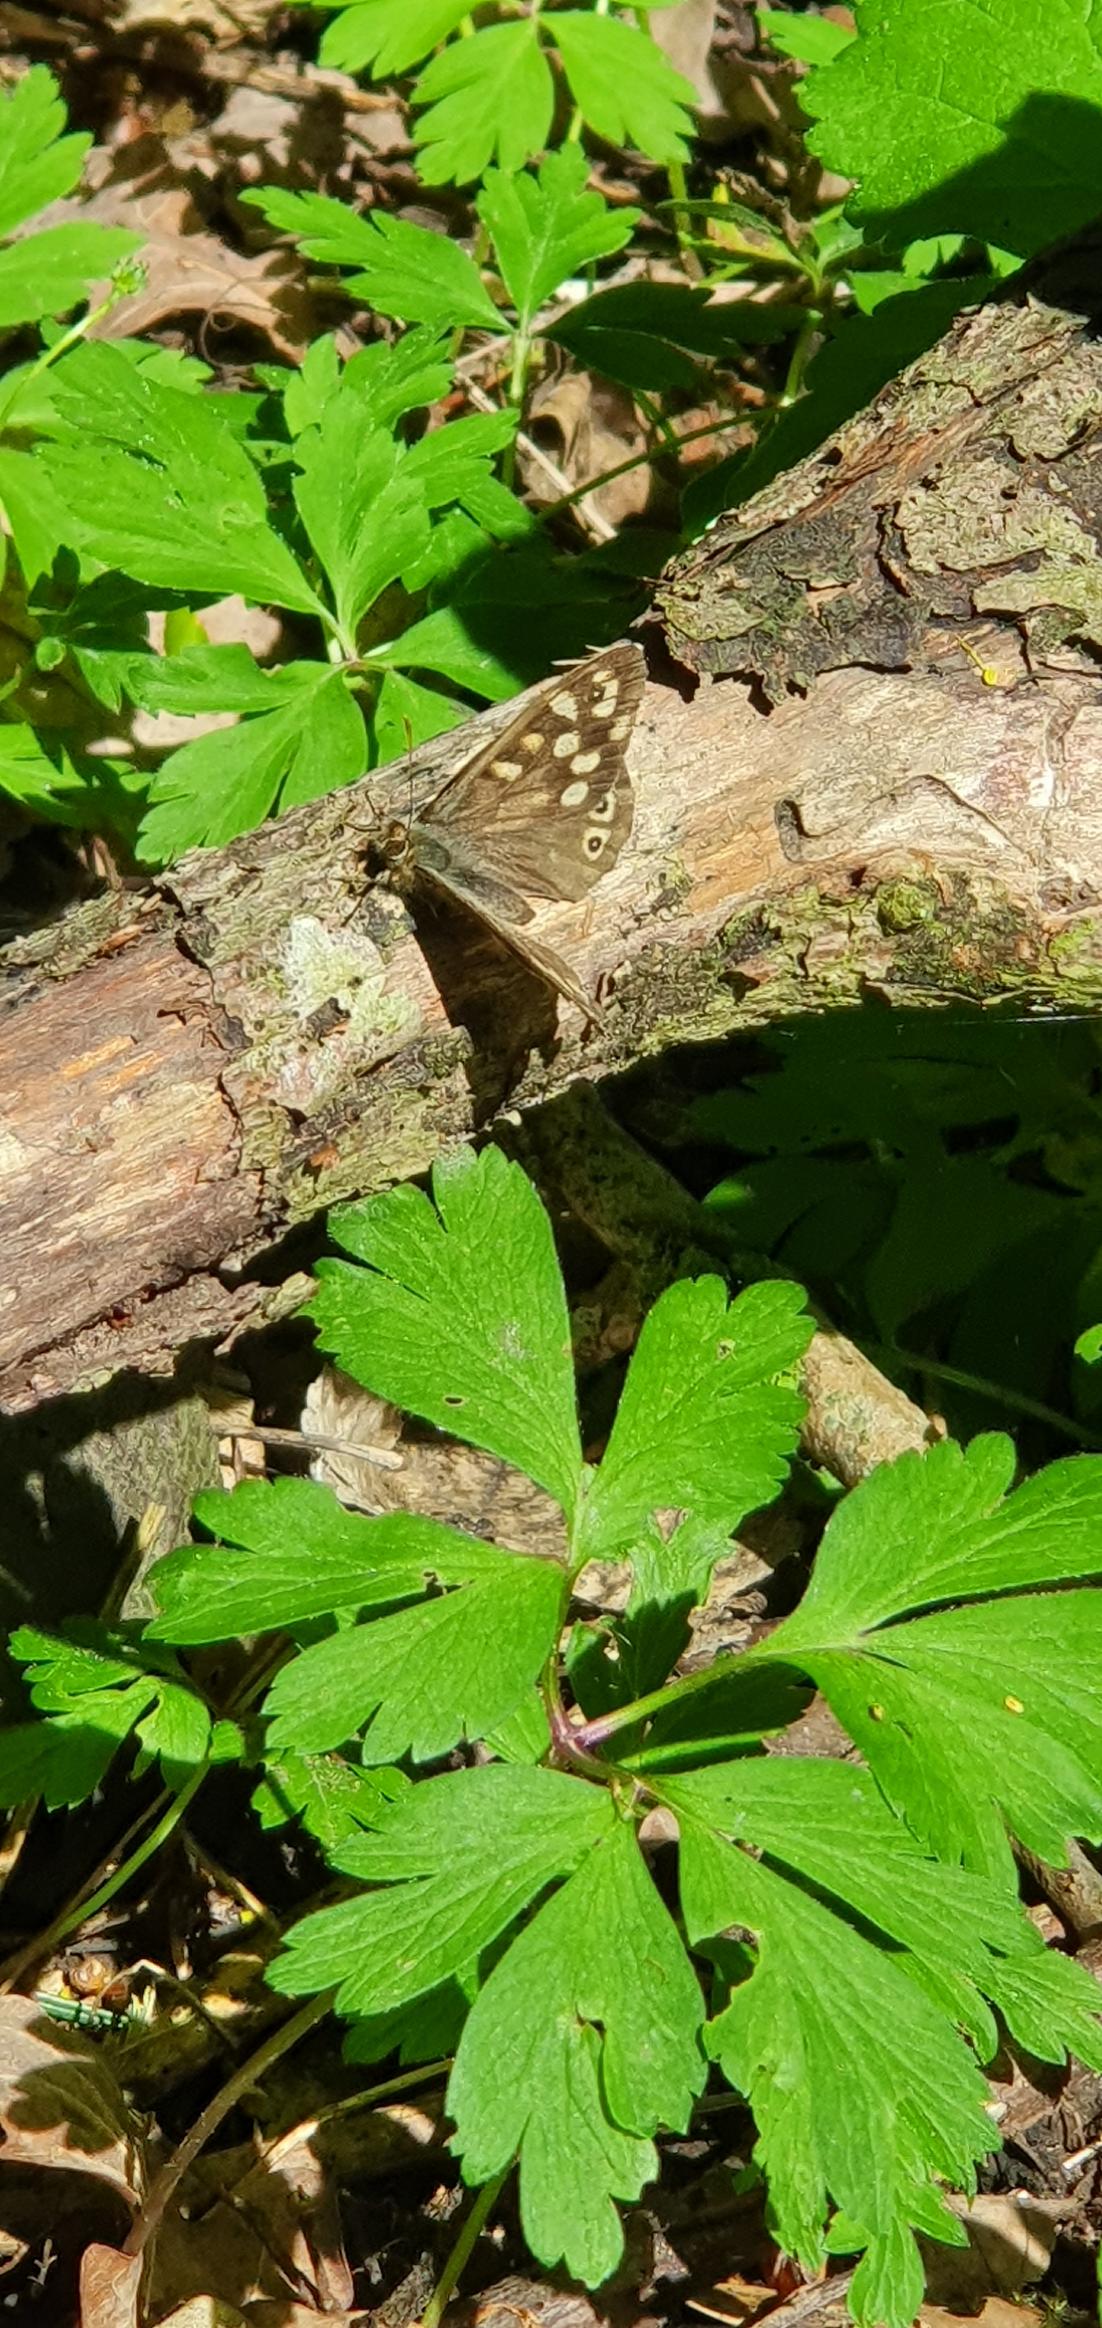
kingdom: Animalia
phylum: Arthropoda
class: Insecta
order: Lepidoptera
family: Nymphalidae
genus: Pararge
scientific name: Pararge aegeria
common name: Skovrandøje
